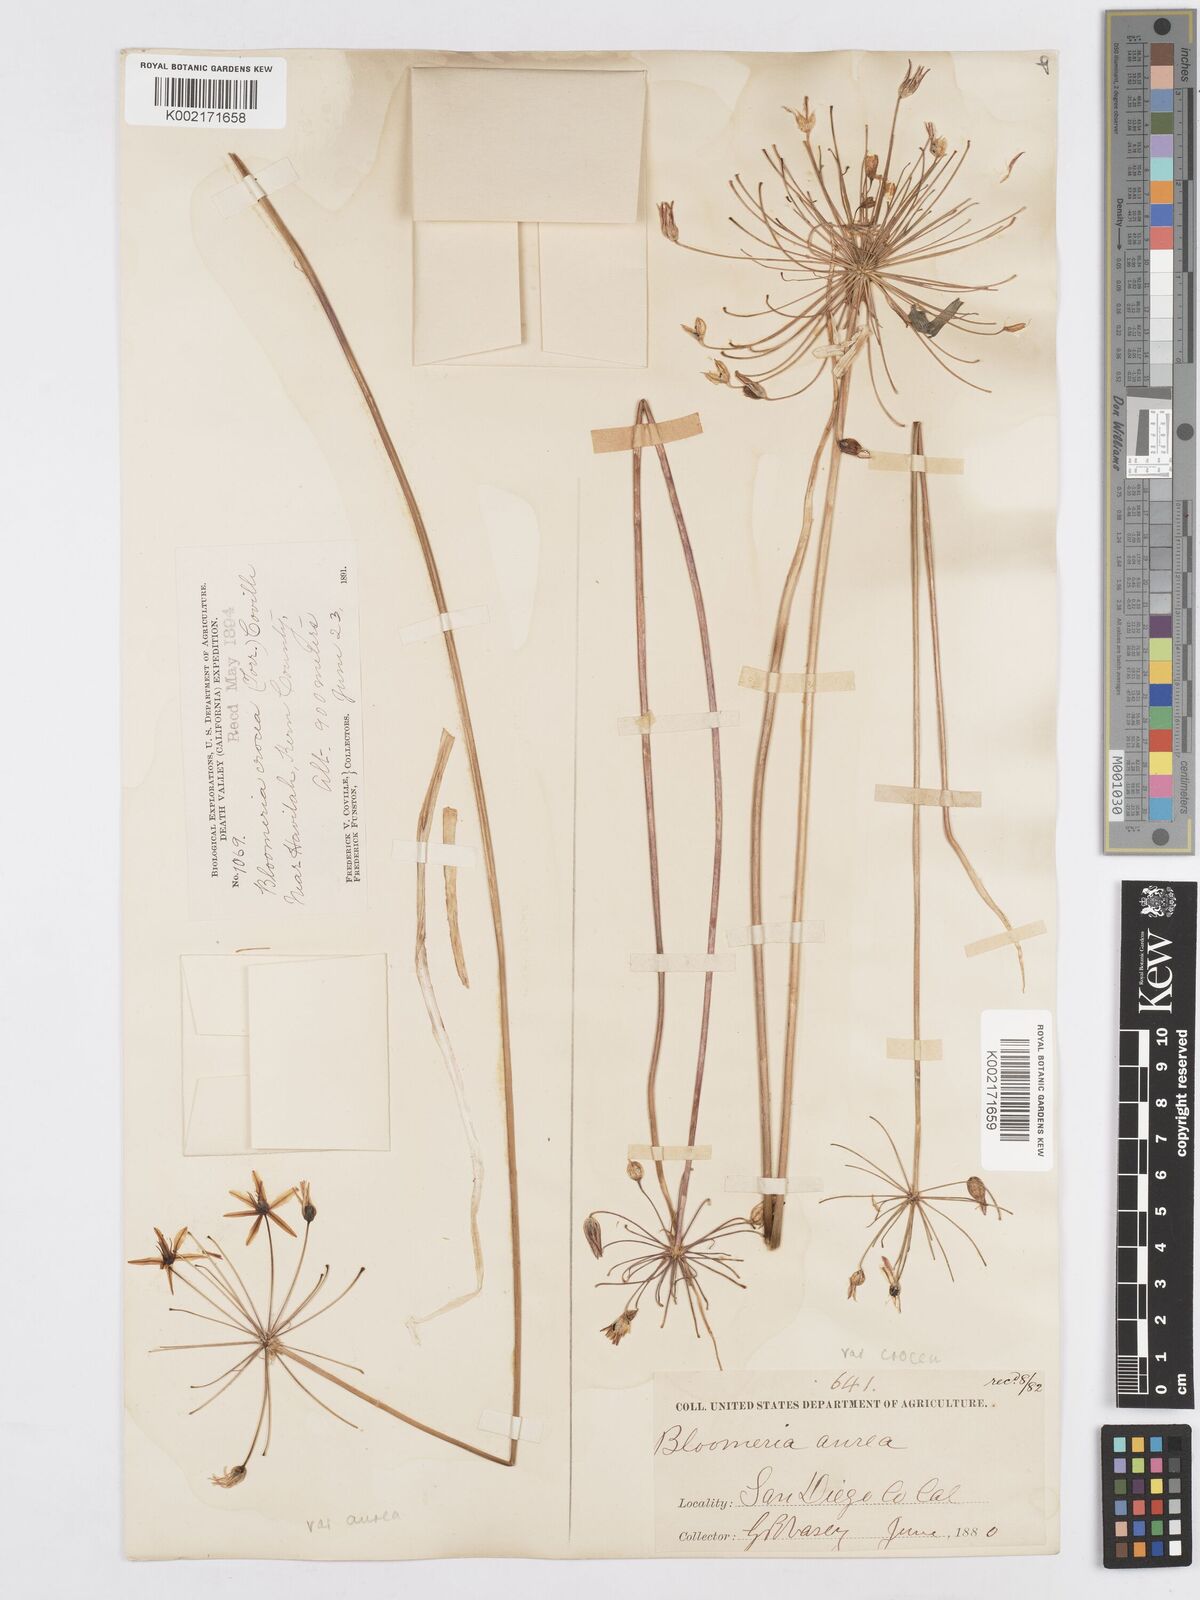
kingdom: Plantae
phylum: Tracheophyta
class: Liliopsida
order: Asparagales
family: Asparagaceae
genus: Bloomeria
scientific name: Bloomeria crocea
